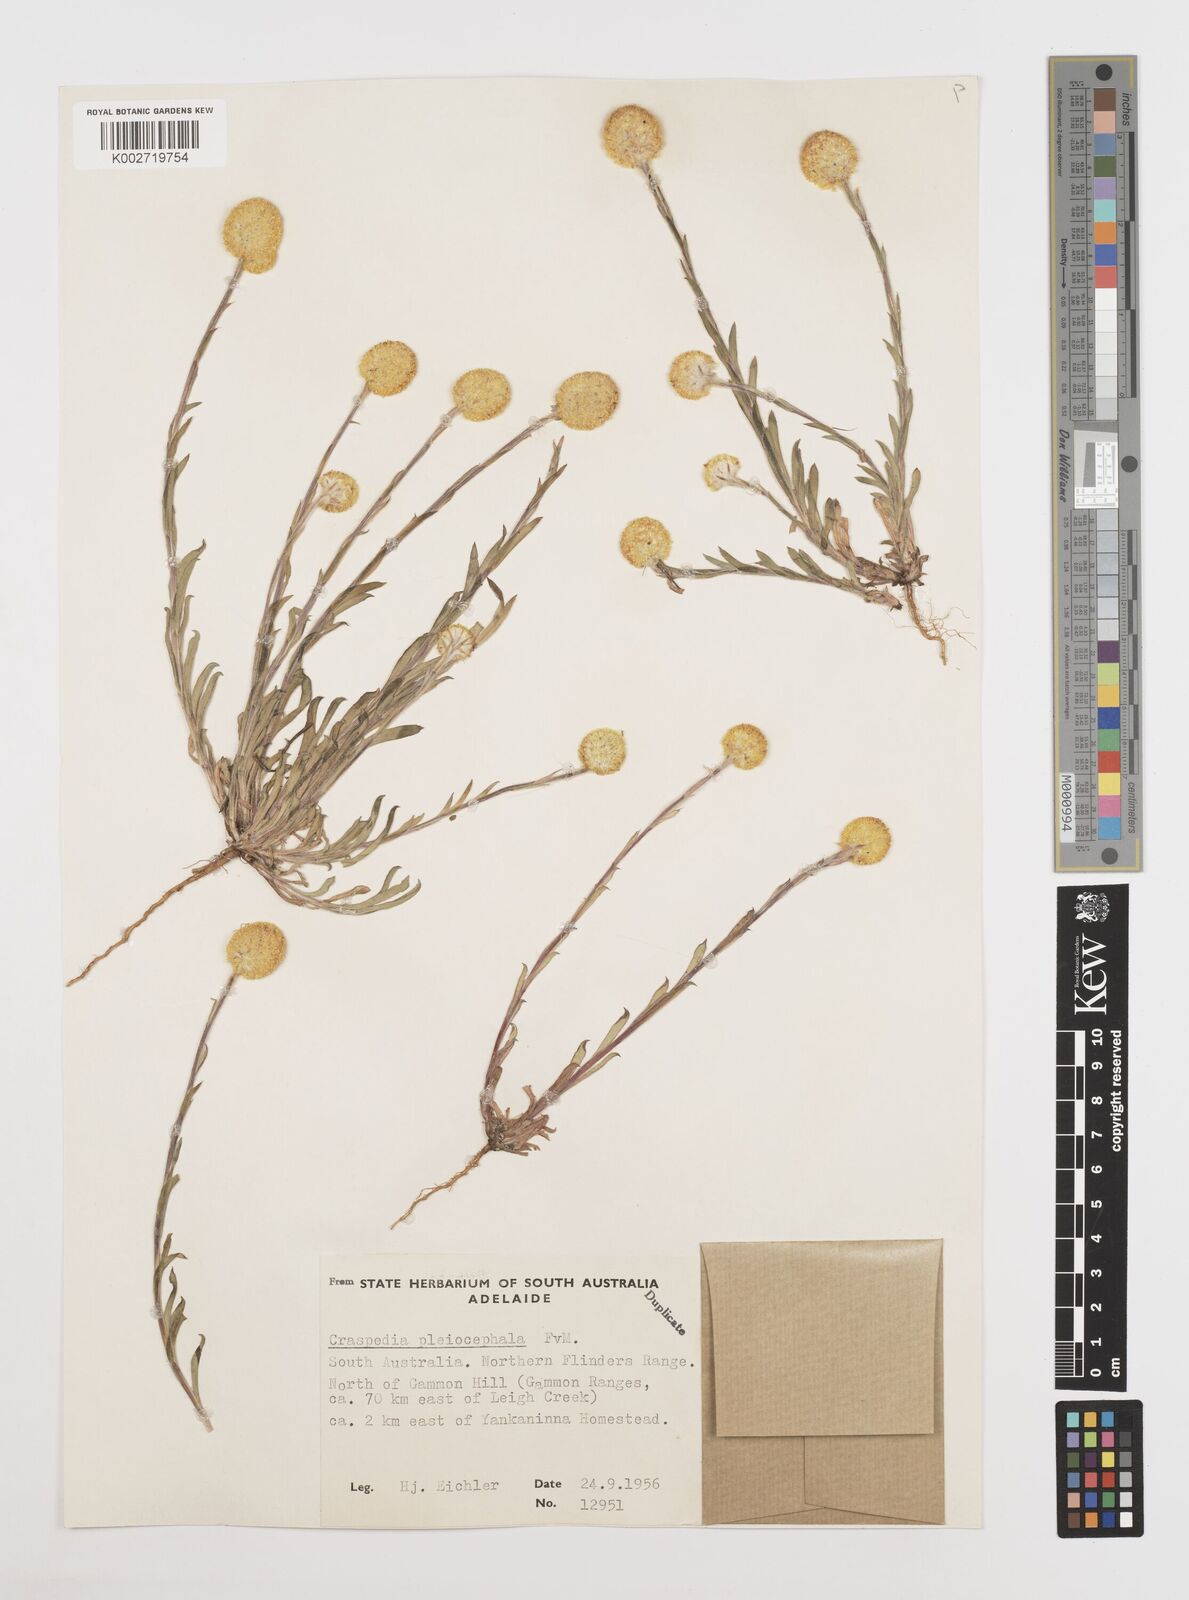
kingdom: Plantae
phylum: Tracheophyta
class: Magnoliopsida
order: Asterales
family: Asteraceae
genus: Pycnosorus
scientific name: Pycnosorus pleiocephalus
